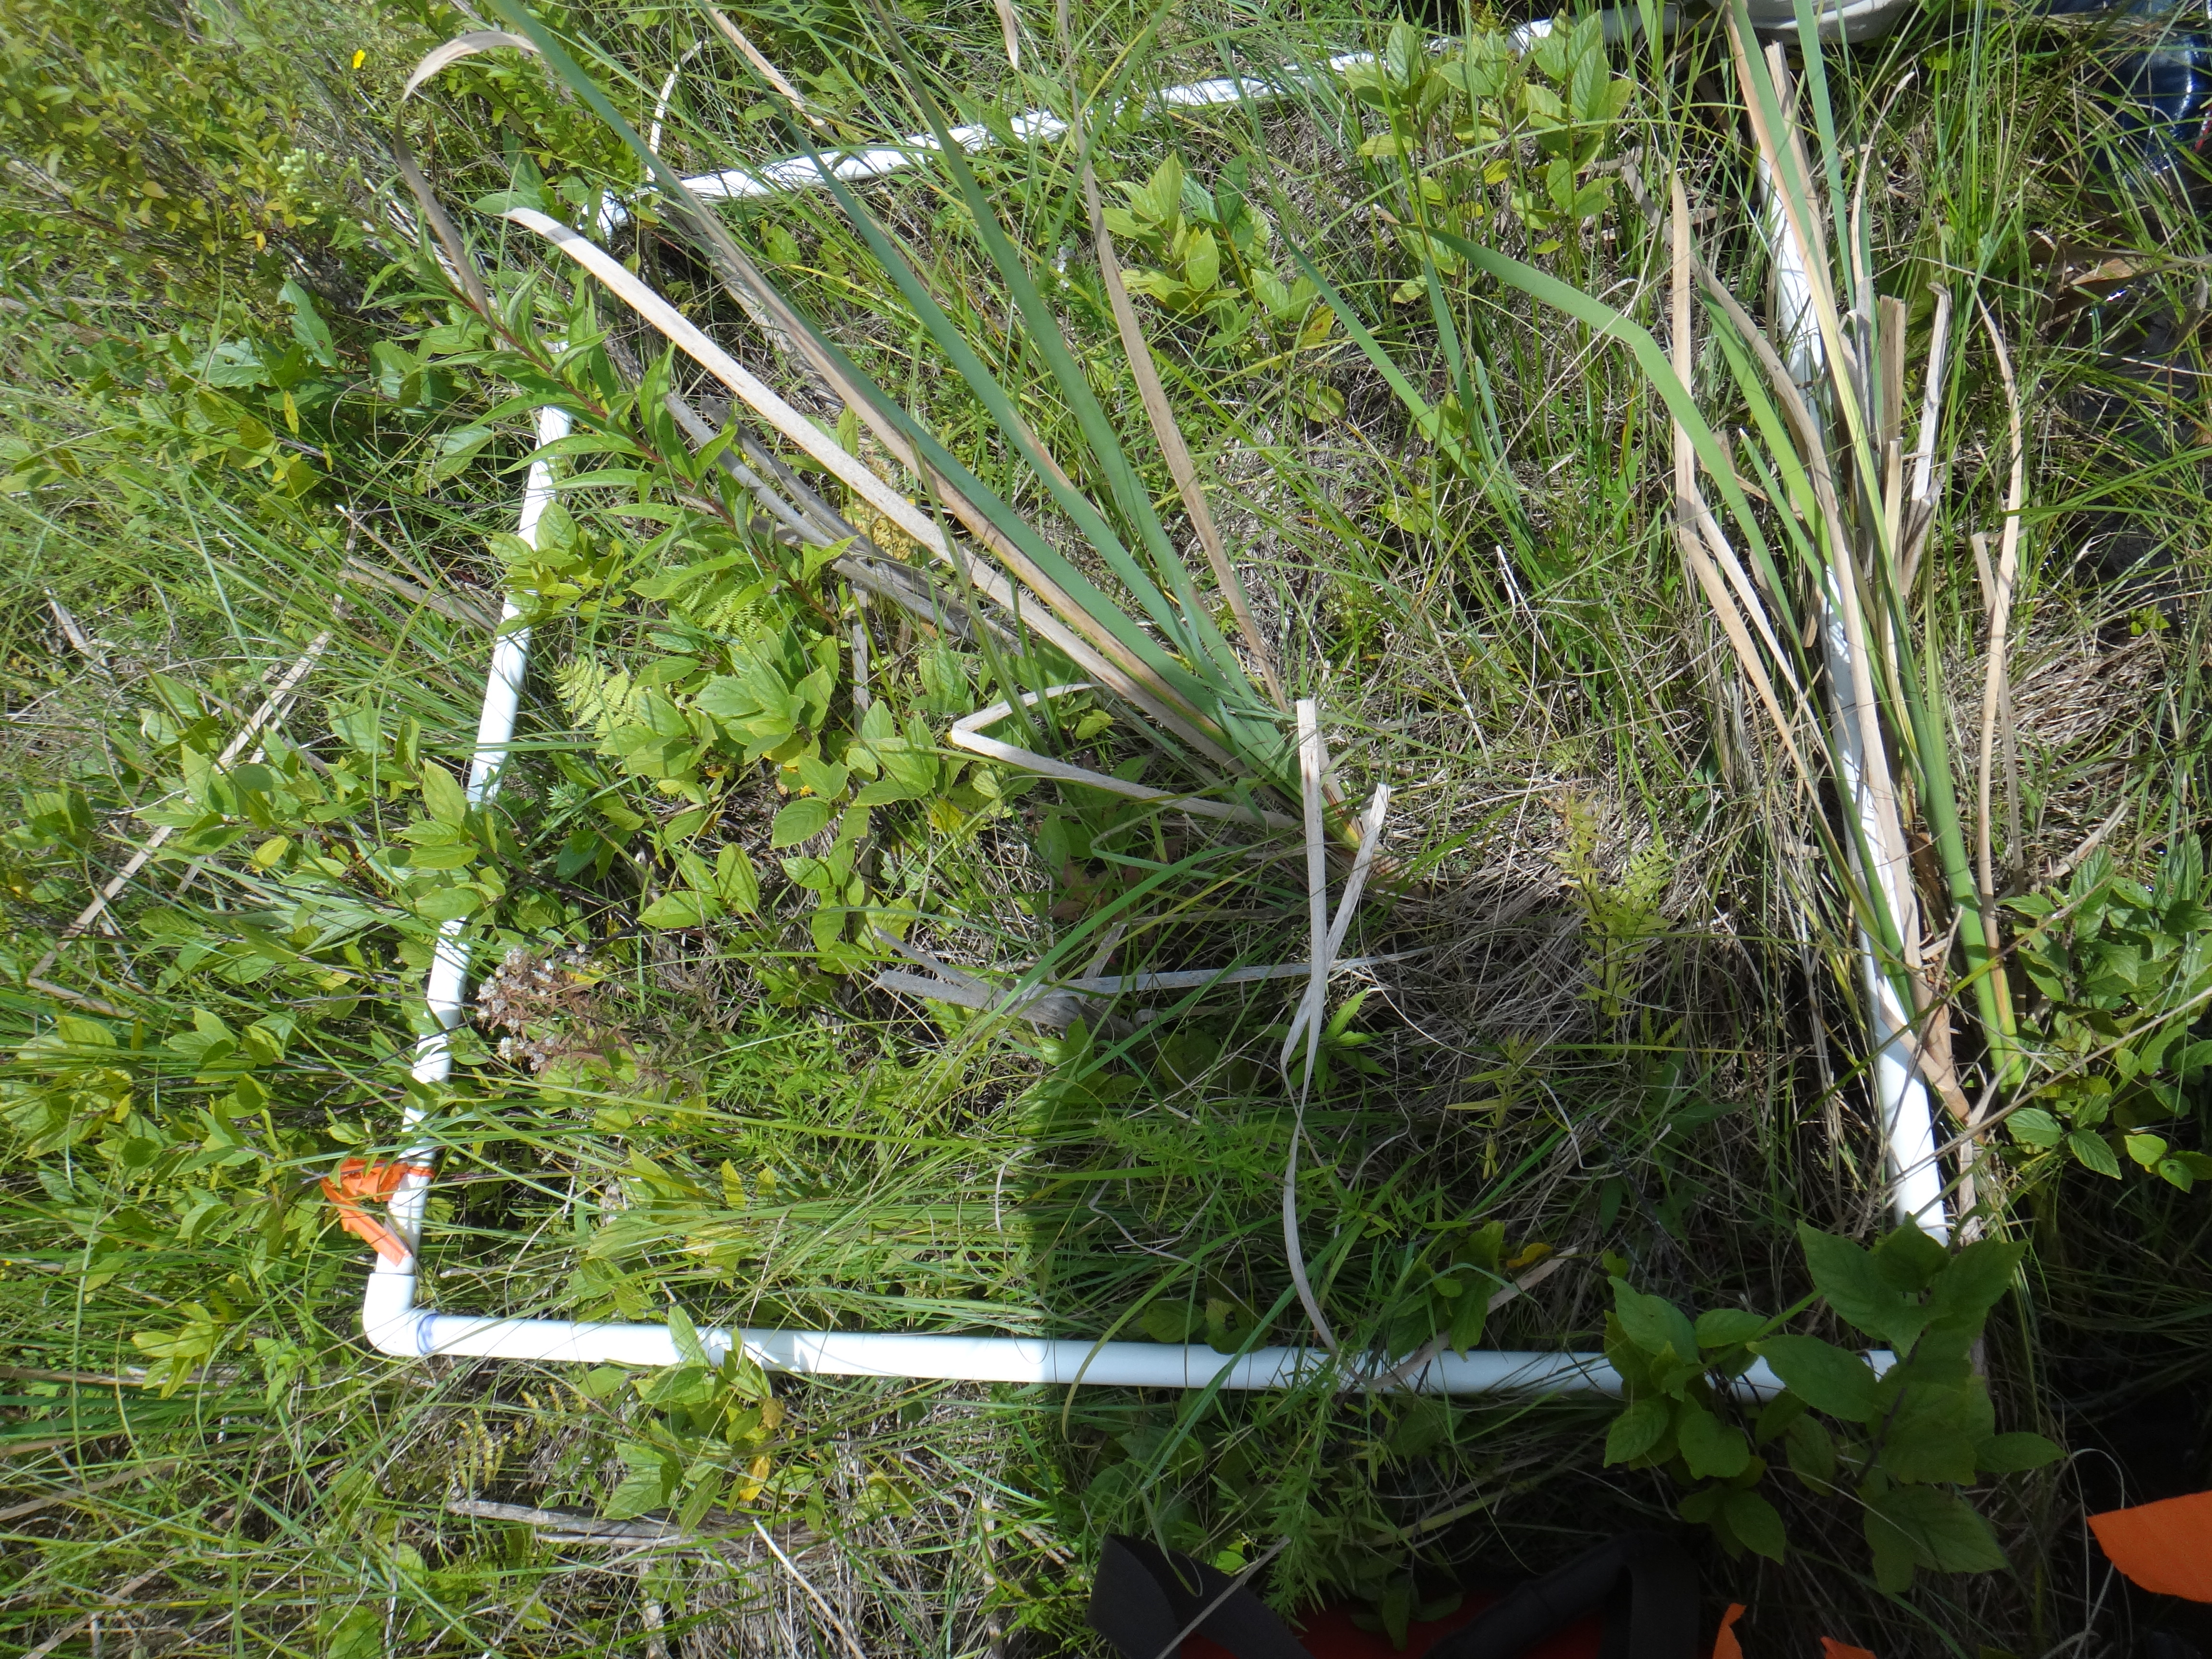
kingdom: Plantae
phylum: Tracheophyta
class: Liliopsida
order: Poales
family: Typhaceae
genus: Typha
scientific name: Typha latifolia
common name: Broadleaf cattail
